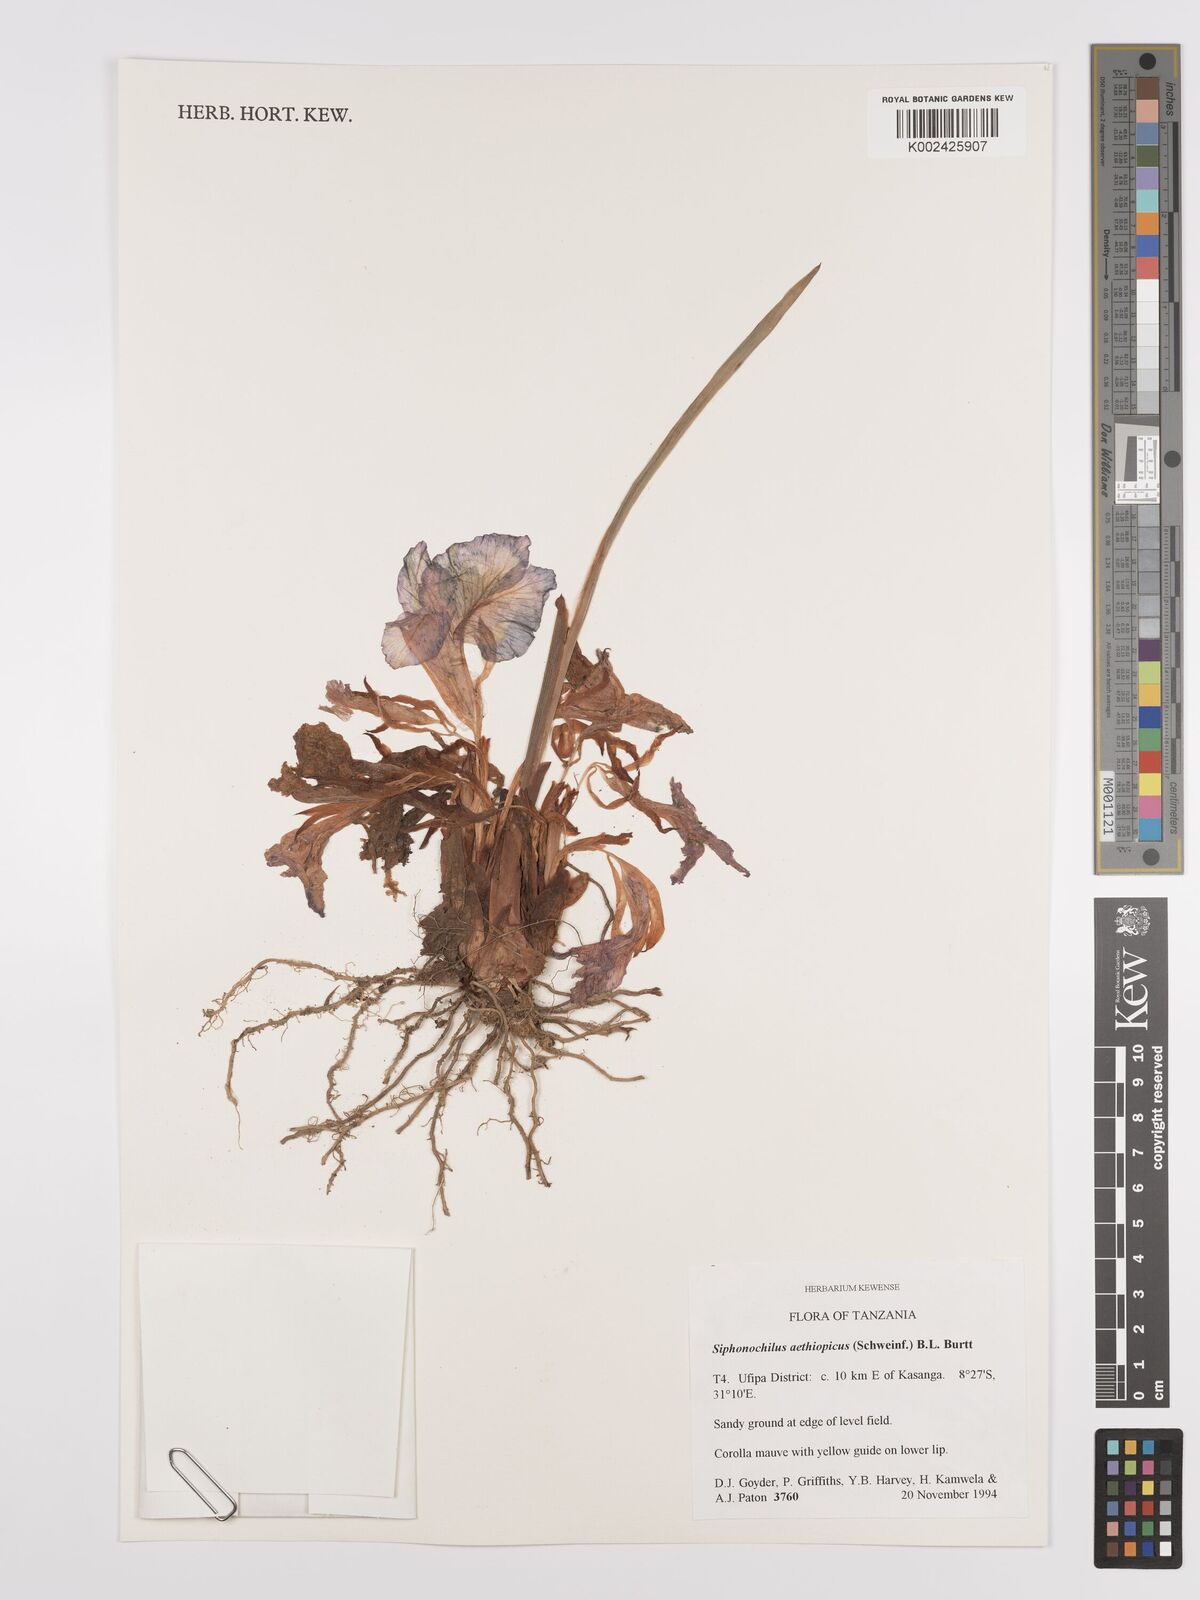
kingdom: Plantae
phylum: Tracheophyta
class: Liliopsida
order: Zingiberales
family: Zingiberaceae
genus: Siphonochilus
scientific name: Siphonochilus aethiopicus
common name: African-ginger
